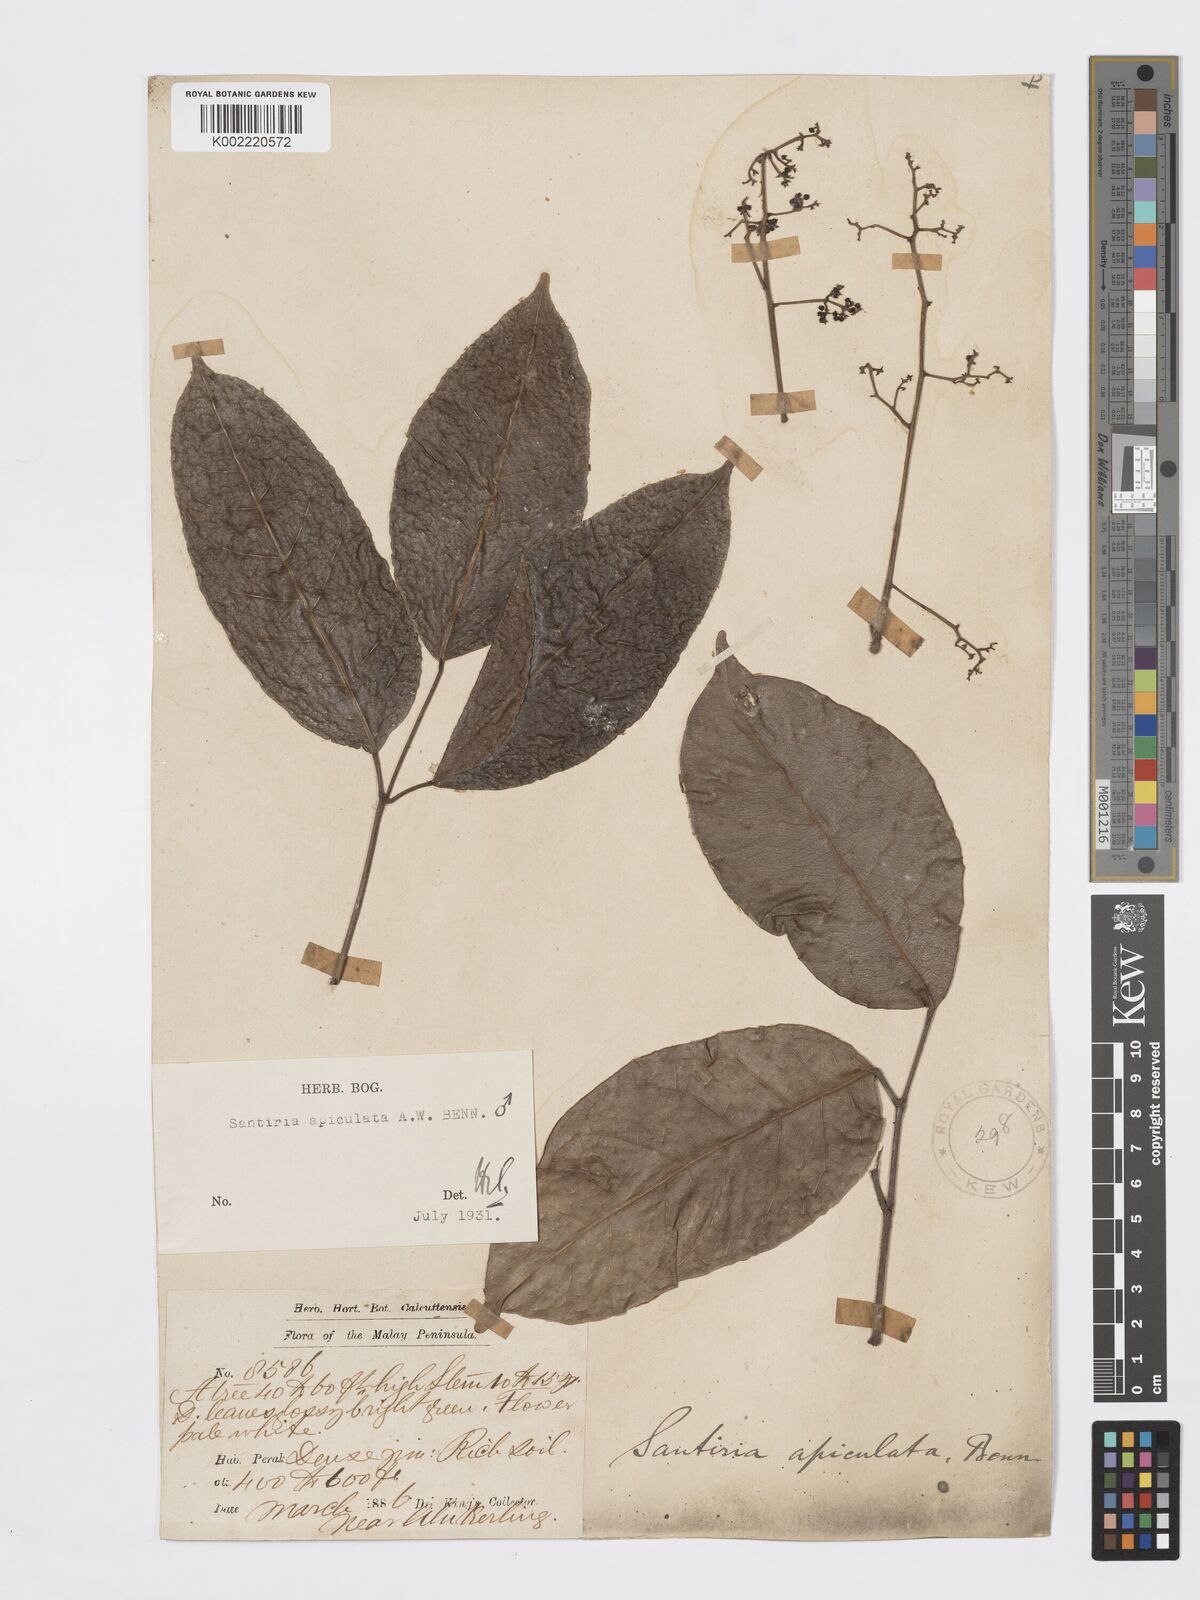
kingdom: Plantae
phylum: Tracheophyta
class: Magnoliopsida
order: Sapindales
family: Burseraceae
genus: Santiria
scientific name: Santiria apiculata
